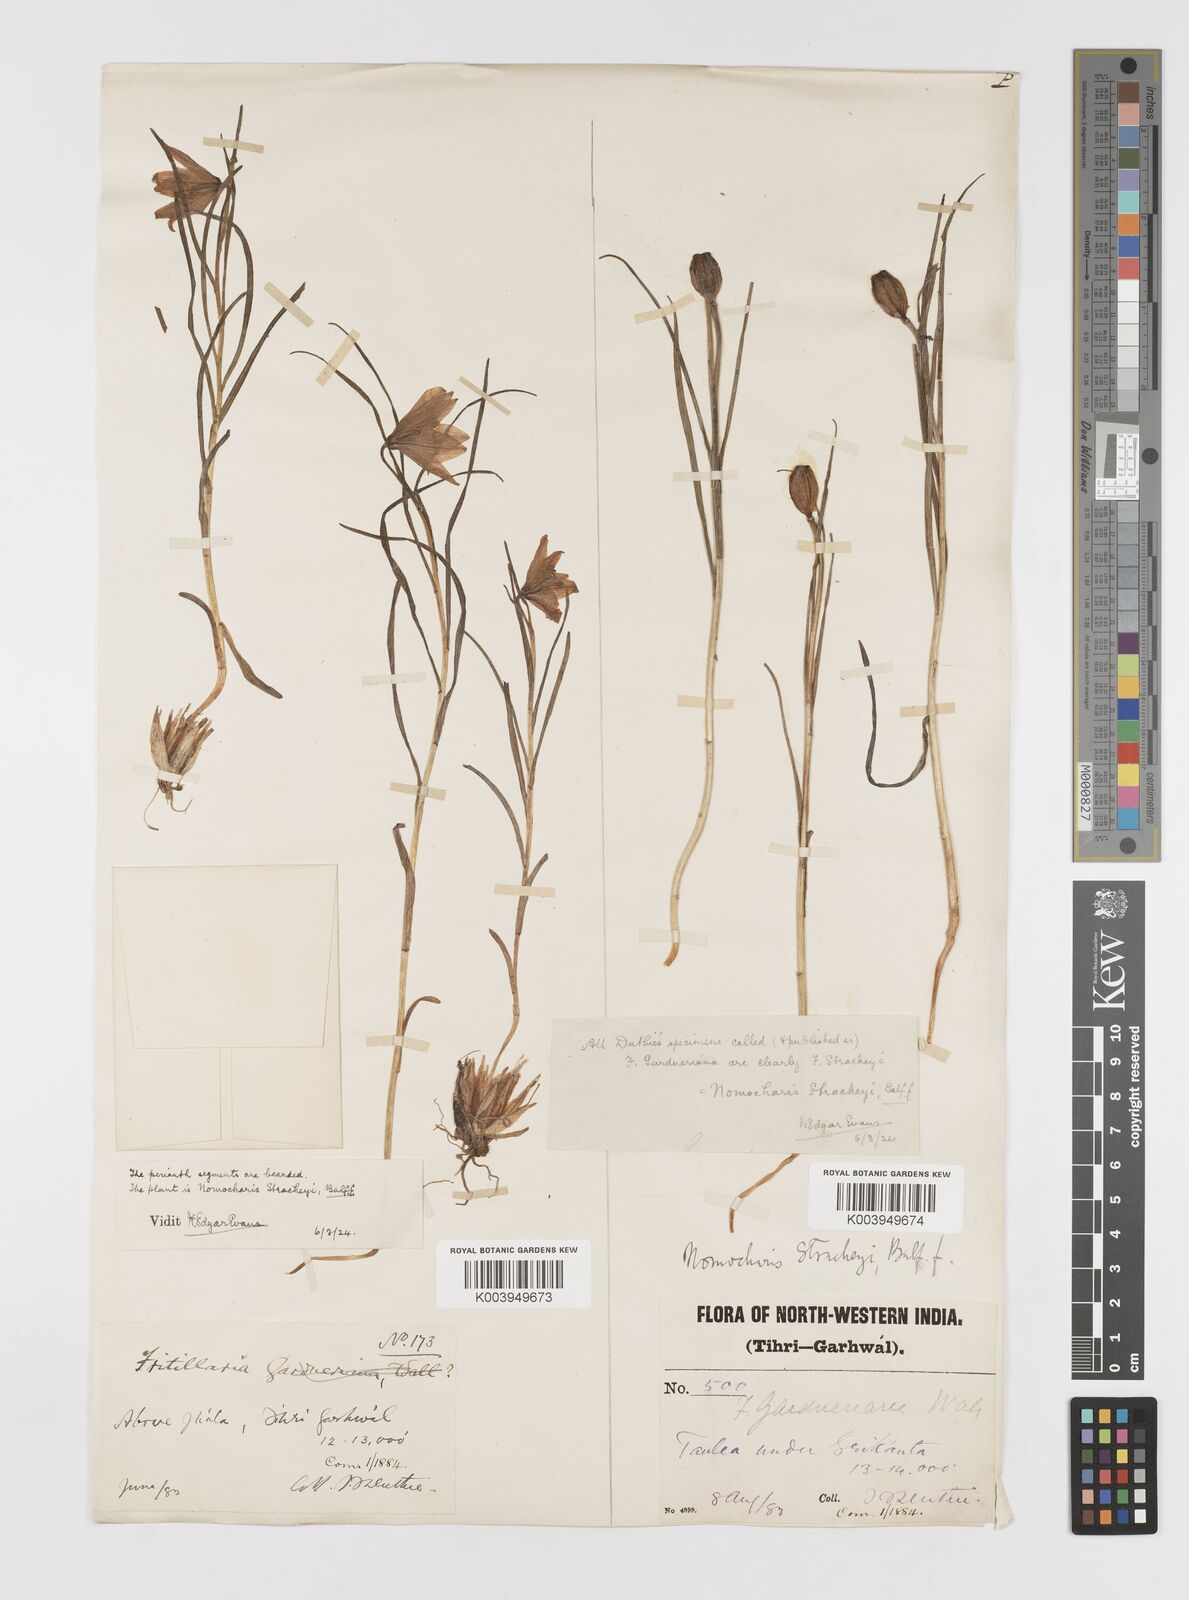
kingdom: Plantae
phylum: Tracheophyta
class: Liliopsida
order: Liliales
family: Liliaceae
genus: Lilium
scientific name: Lilium nanum
